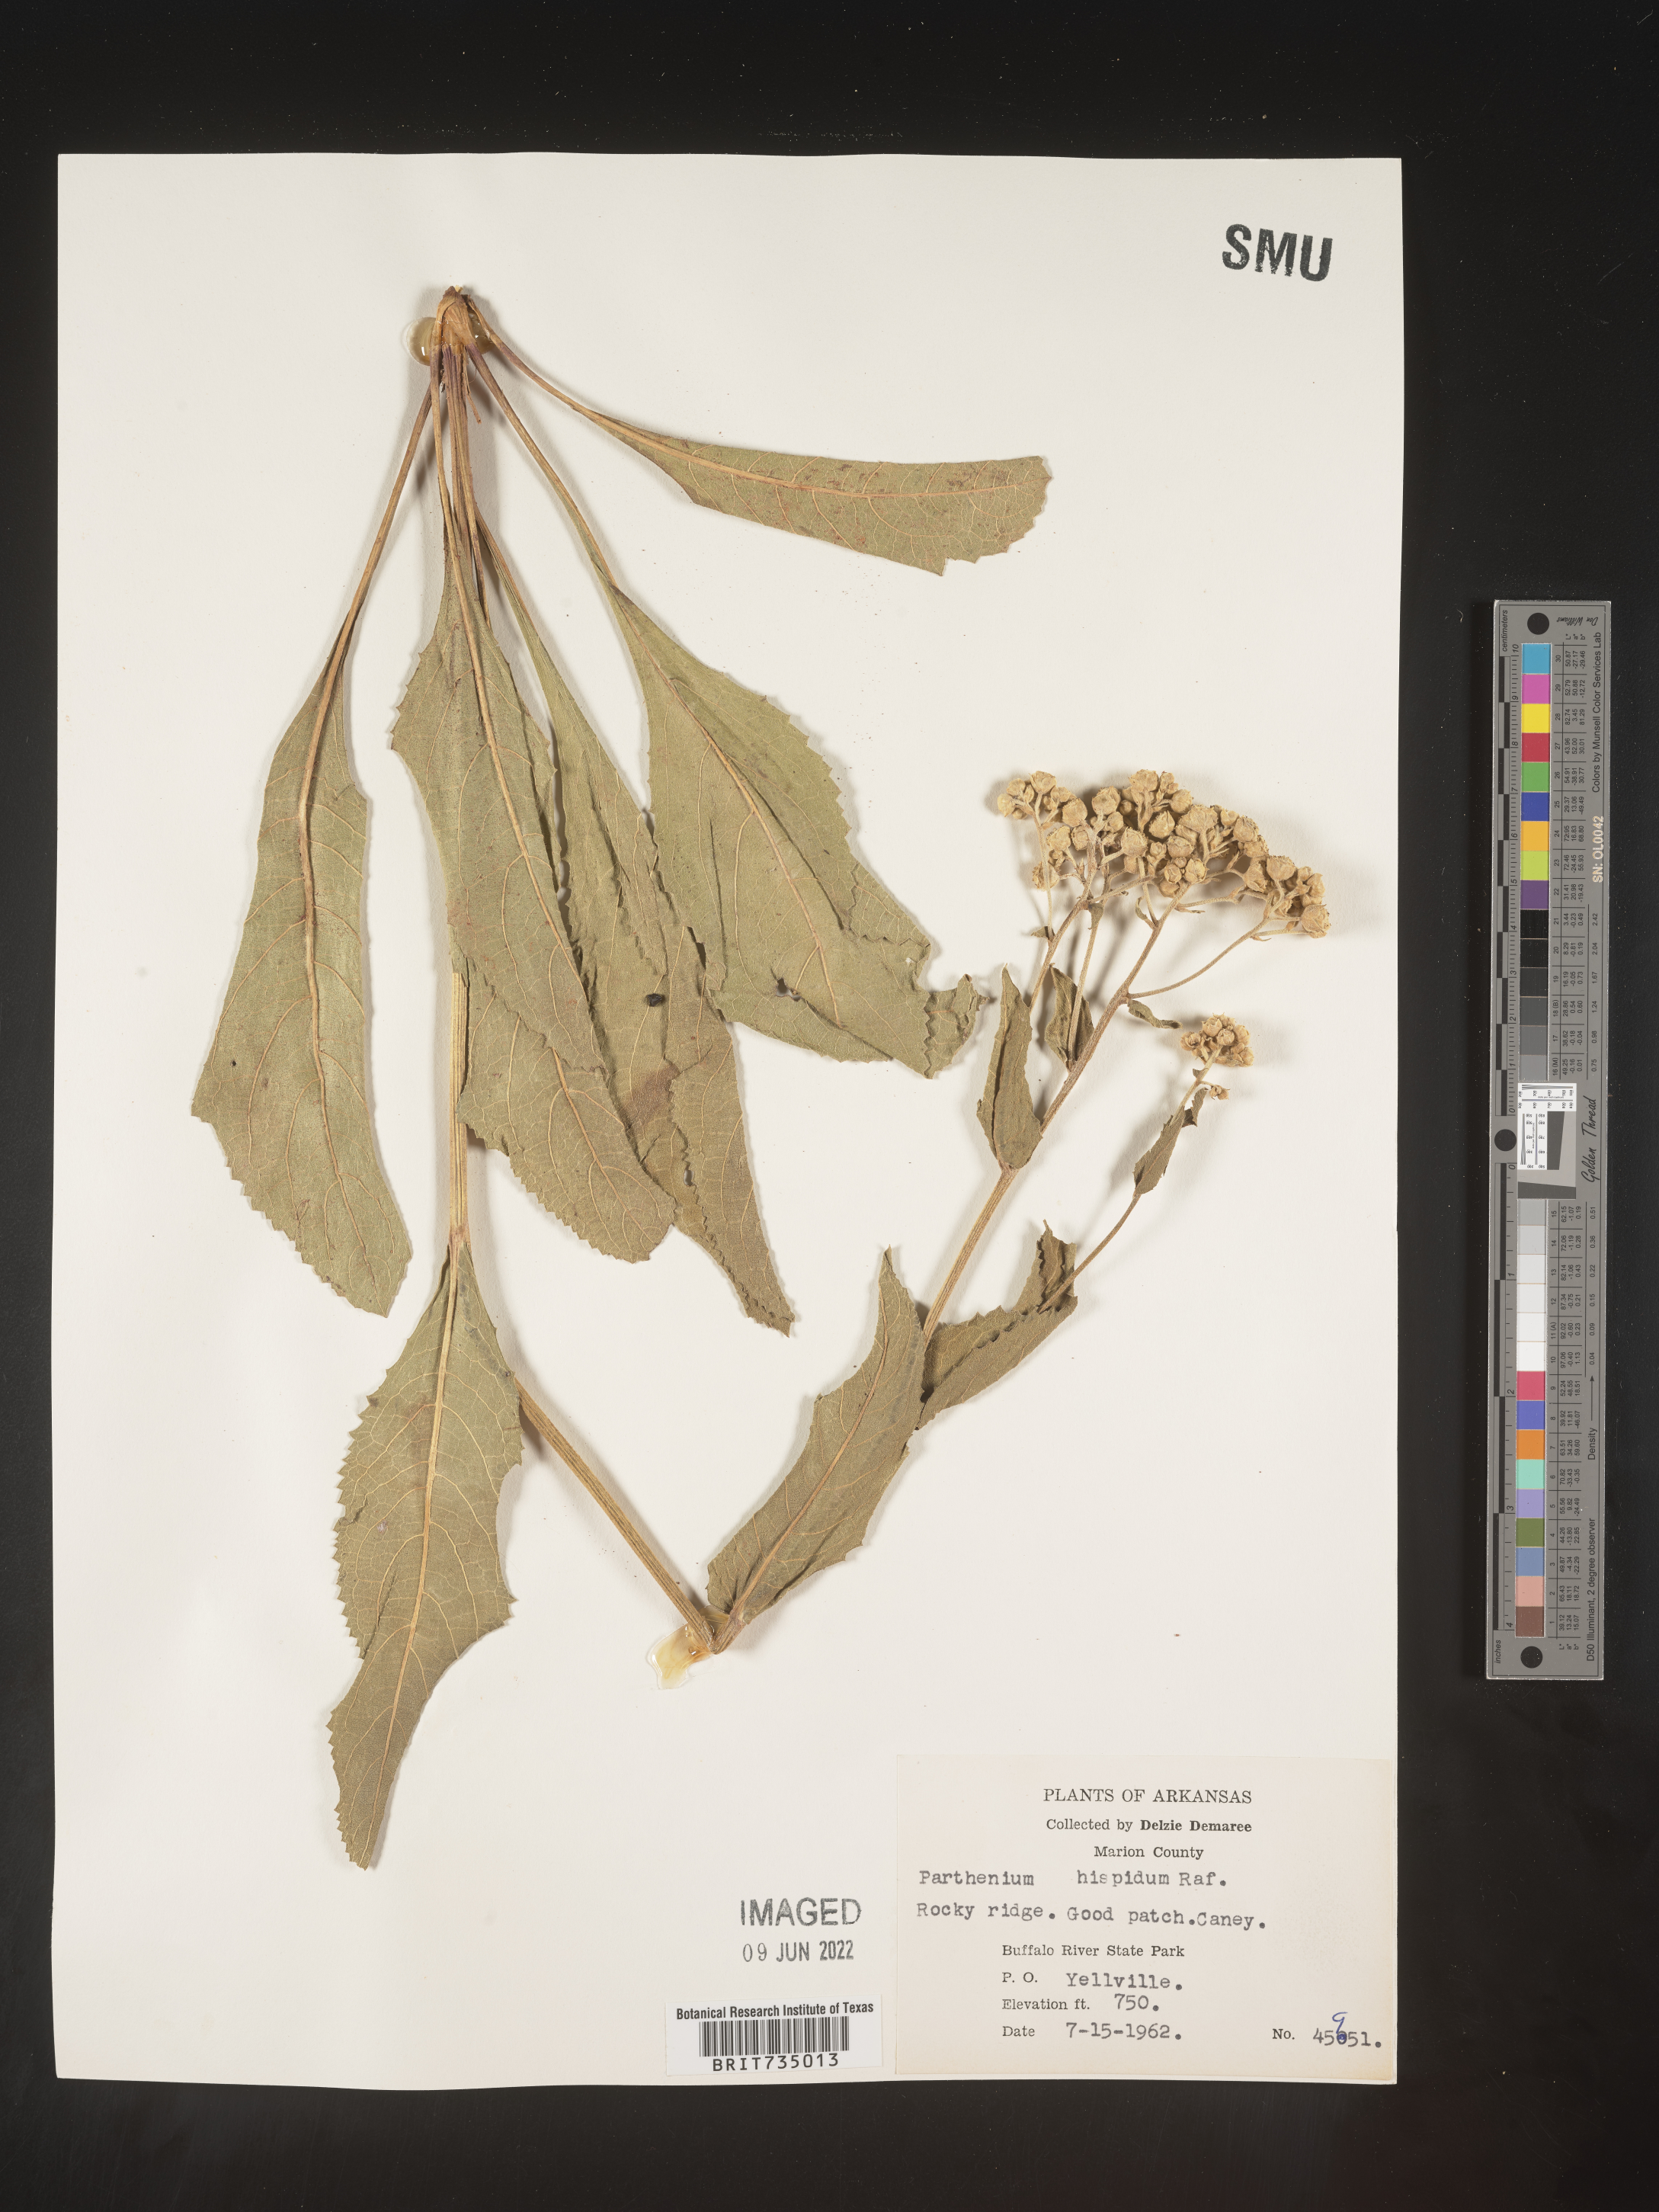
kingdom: Plantae
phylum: Tracheophyta
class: Magnoliopsida
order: Asterales
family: Asteraceae
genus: Parthenium
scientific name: Parthenium hispidum
